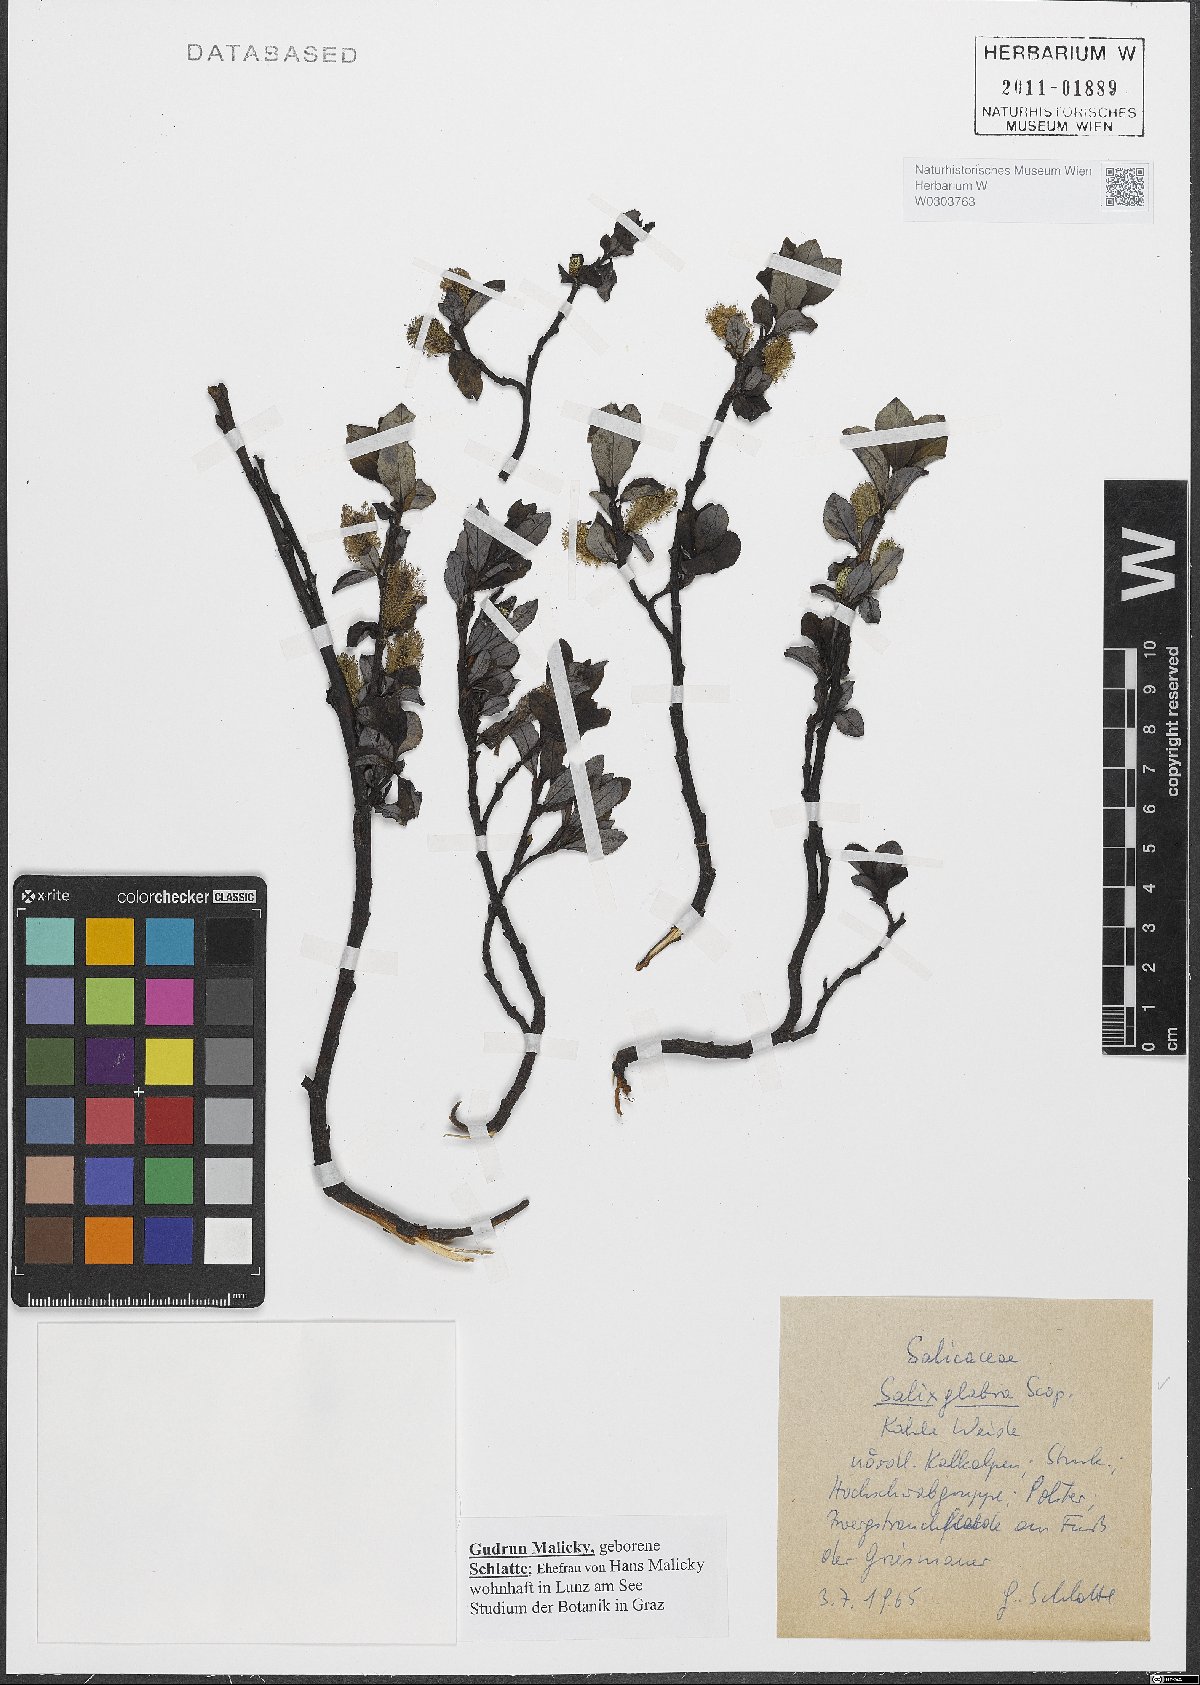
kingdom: Plantae
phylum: Tracheophyta
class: Magnoliopsida
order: Malpighiales
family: Salicaceae
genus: Salix
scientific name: Salix glabra
